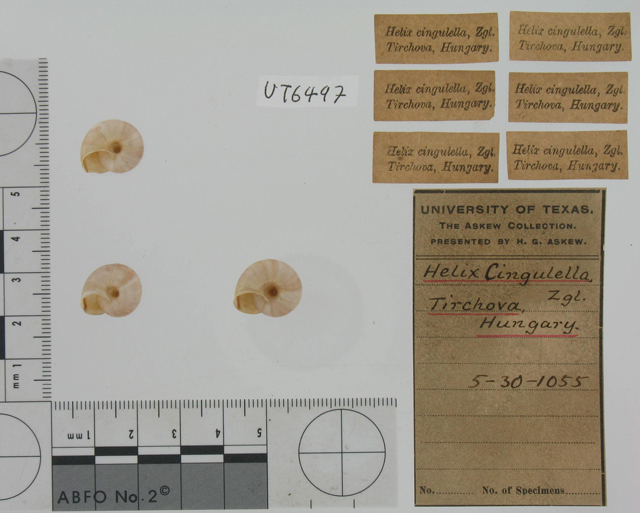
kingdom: Animalia
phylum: Mollusca
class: Gastropoda
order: Stylommatophora
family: Helicidae
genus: Faustina
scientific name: Faustina cingulella
